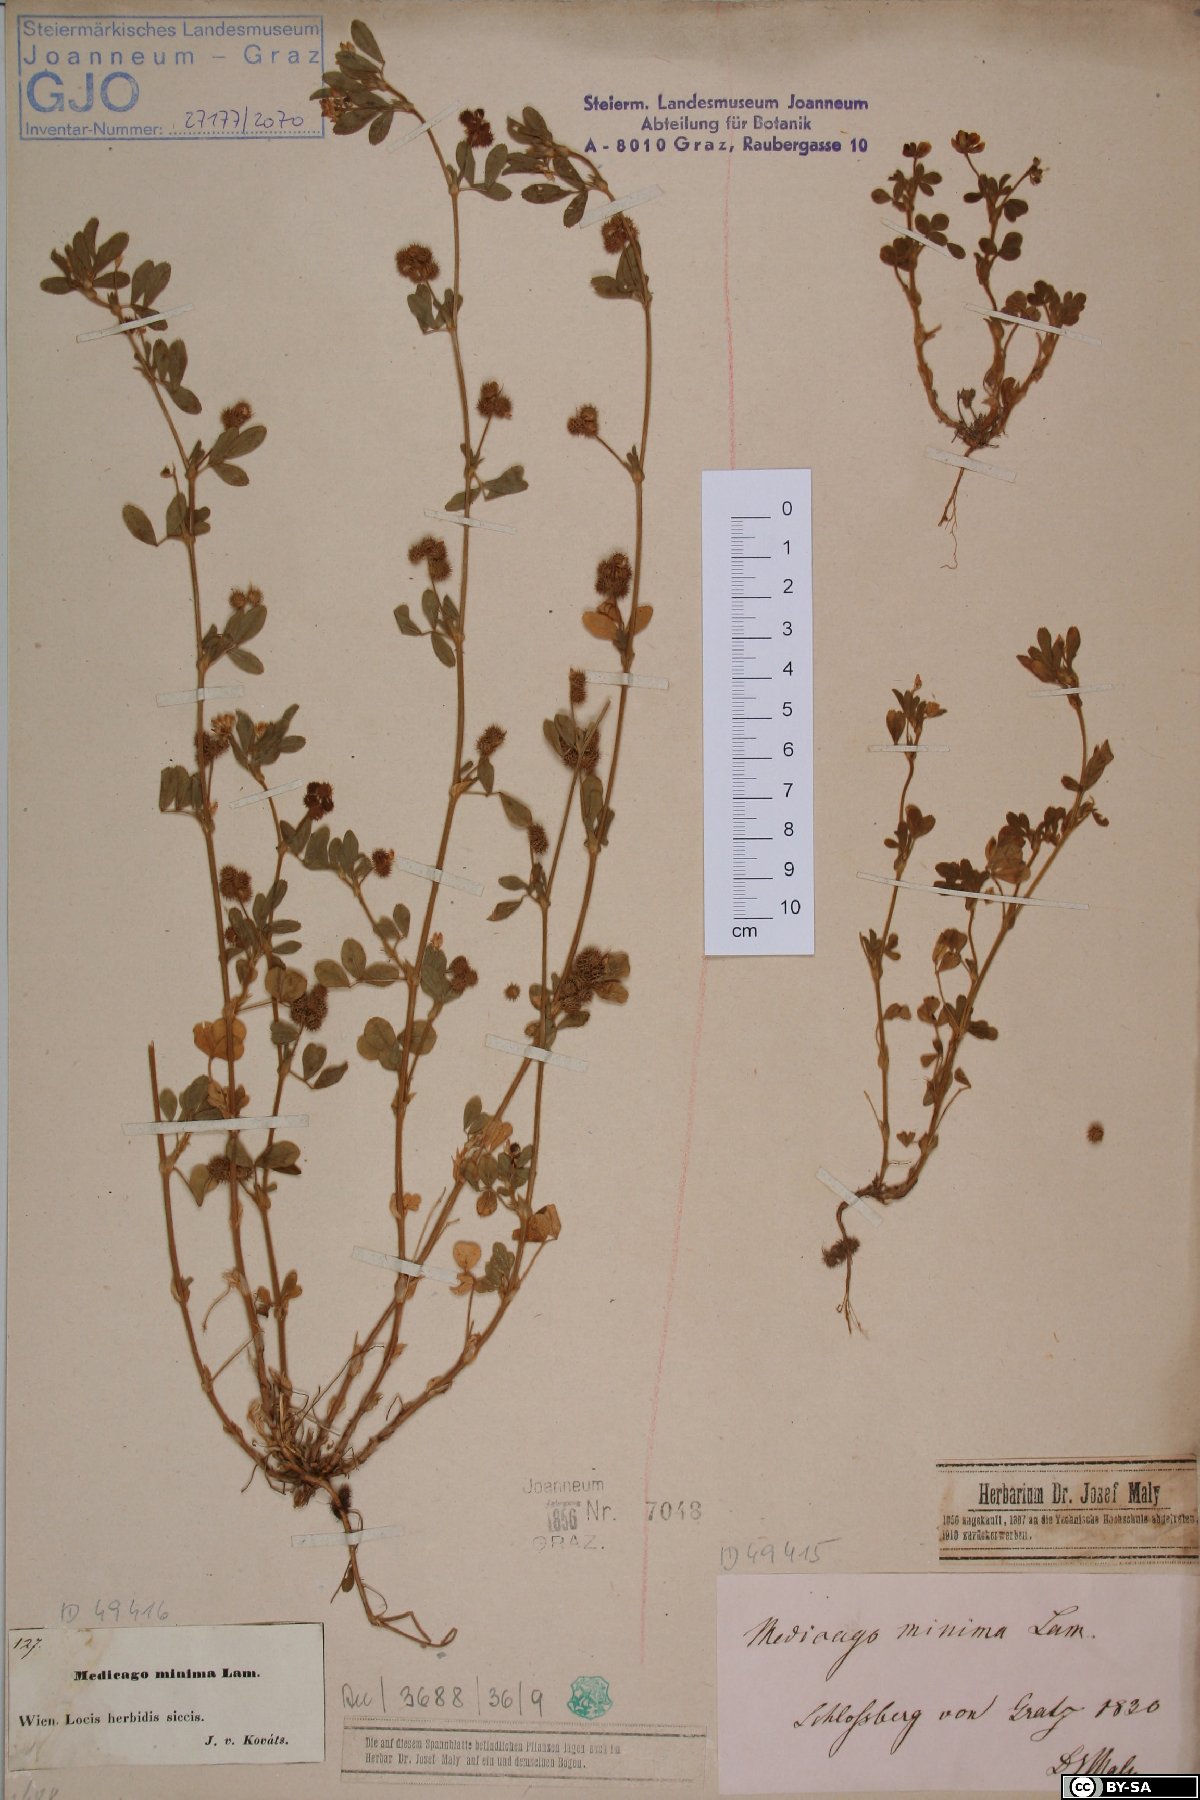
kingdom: Plantae
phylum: Tracheophyta
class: Magnoliopsida
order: Fabales
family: Fabaceae
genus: Medicago
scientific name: Medicago minima
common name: Little bur-clover
